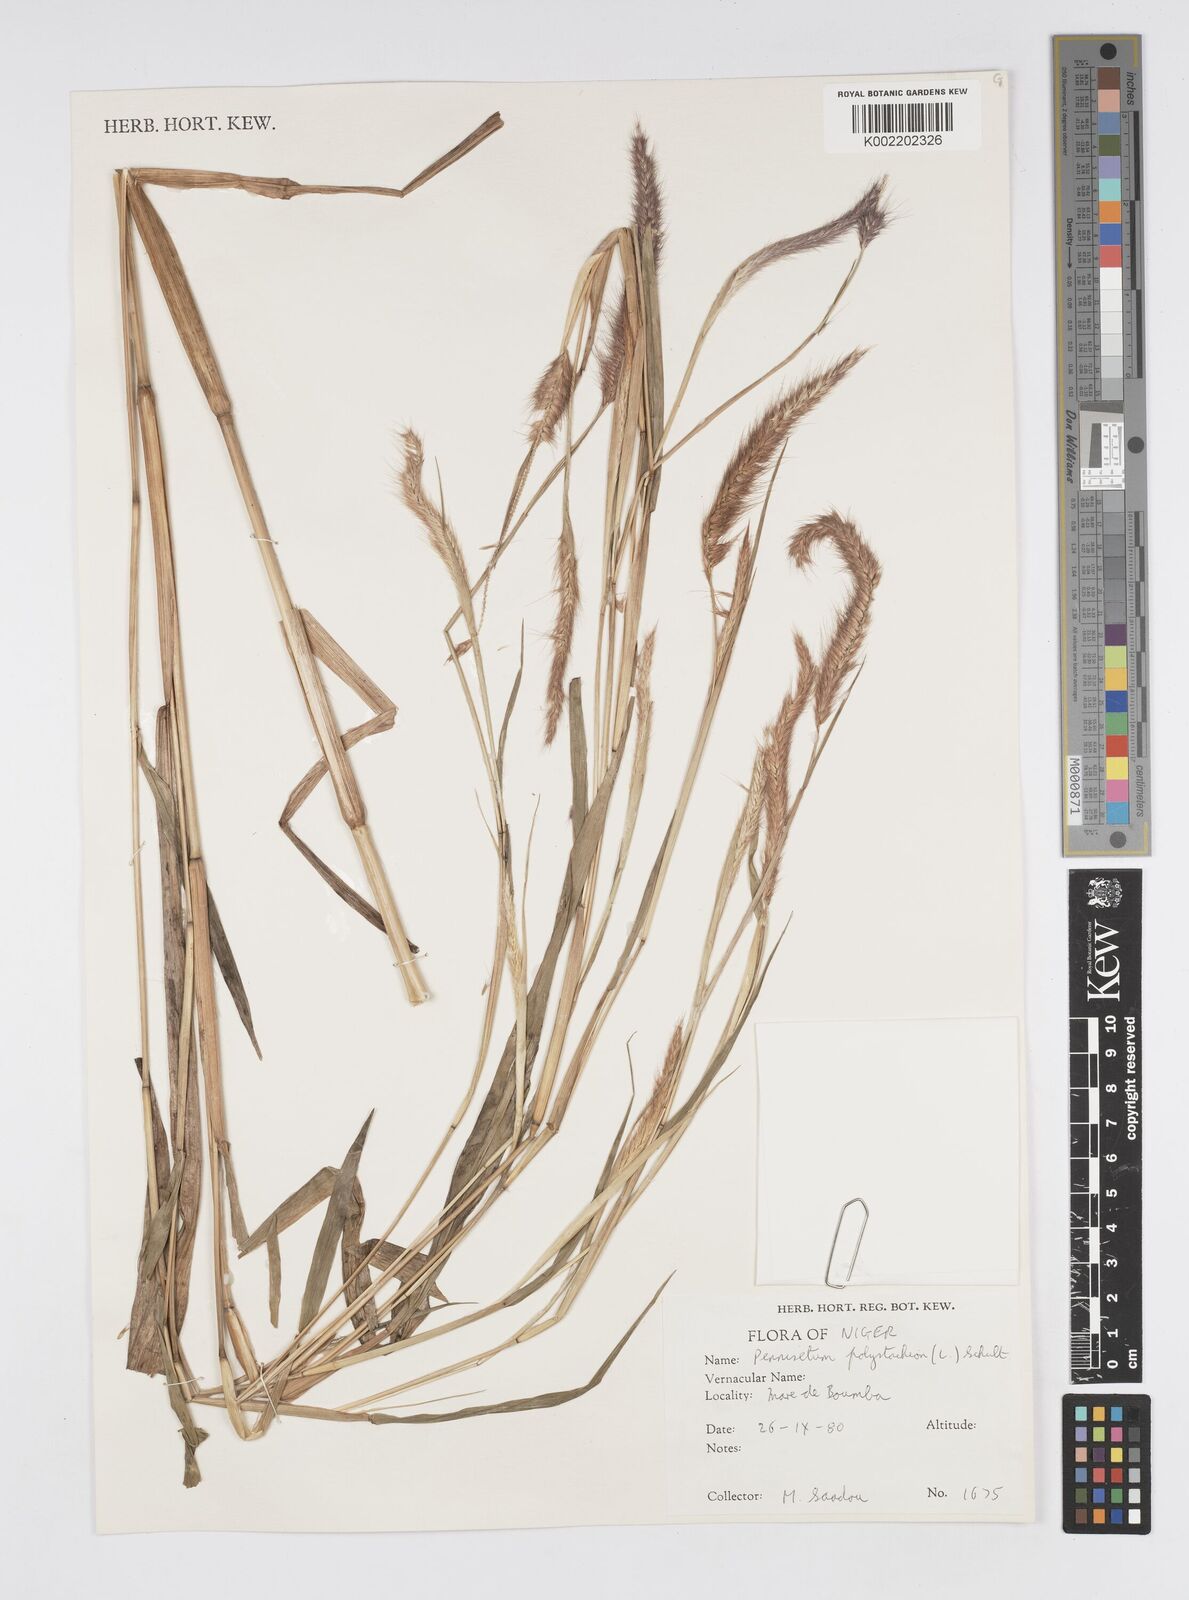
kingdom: Plantae
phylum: Tracheophyta
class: Liliopsida
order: Poales
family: Poaceae
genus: Setaria
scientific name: Setaria parviflora
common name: Knotroot bristle-grass
